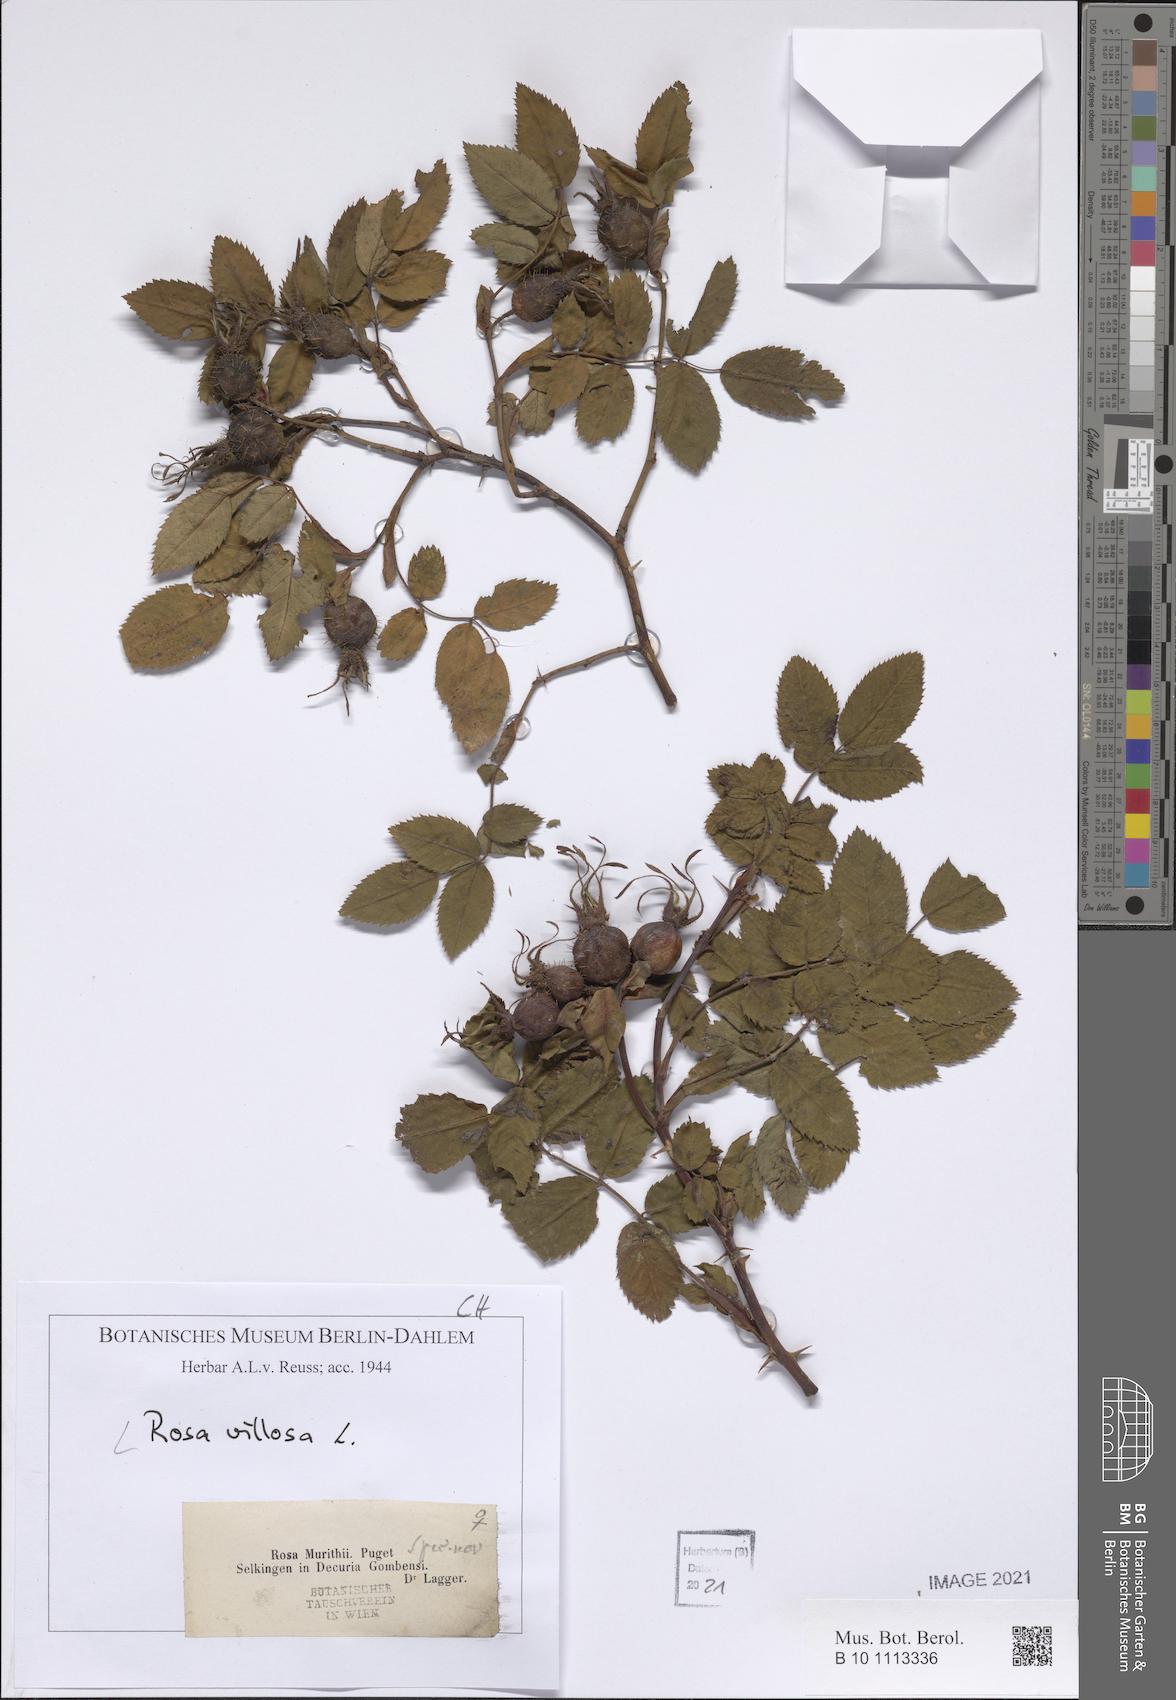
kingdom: Plantae
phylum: Tracheophyta
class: Magnoliopsida
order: Rosales
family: Rosaceae
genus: Rosa
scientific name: Rosa villosa
